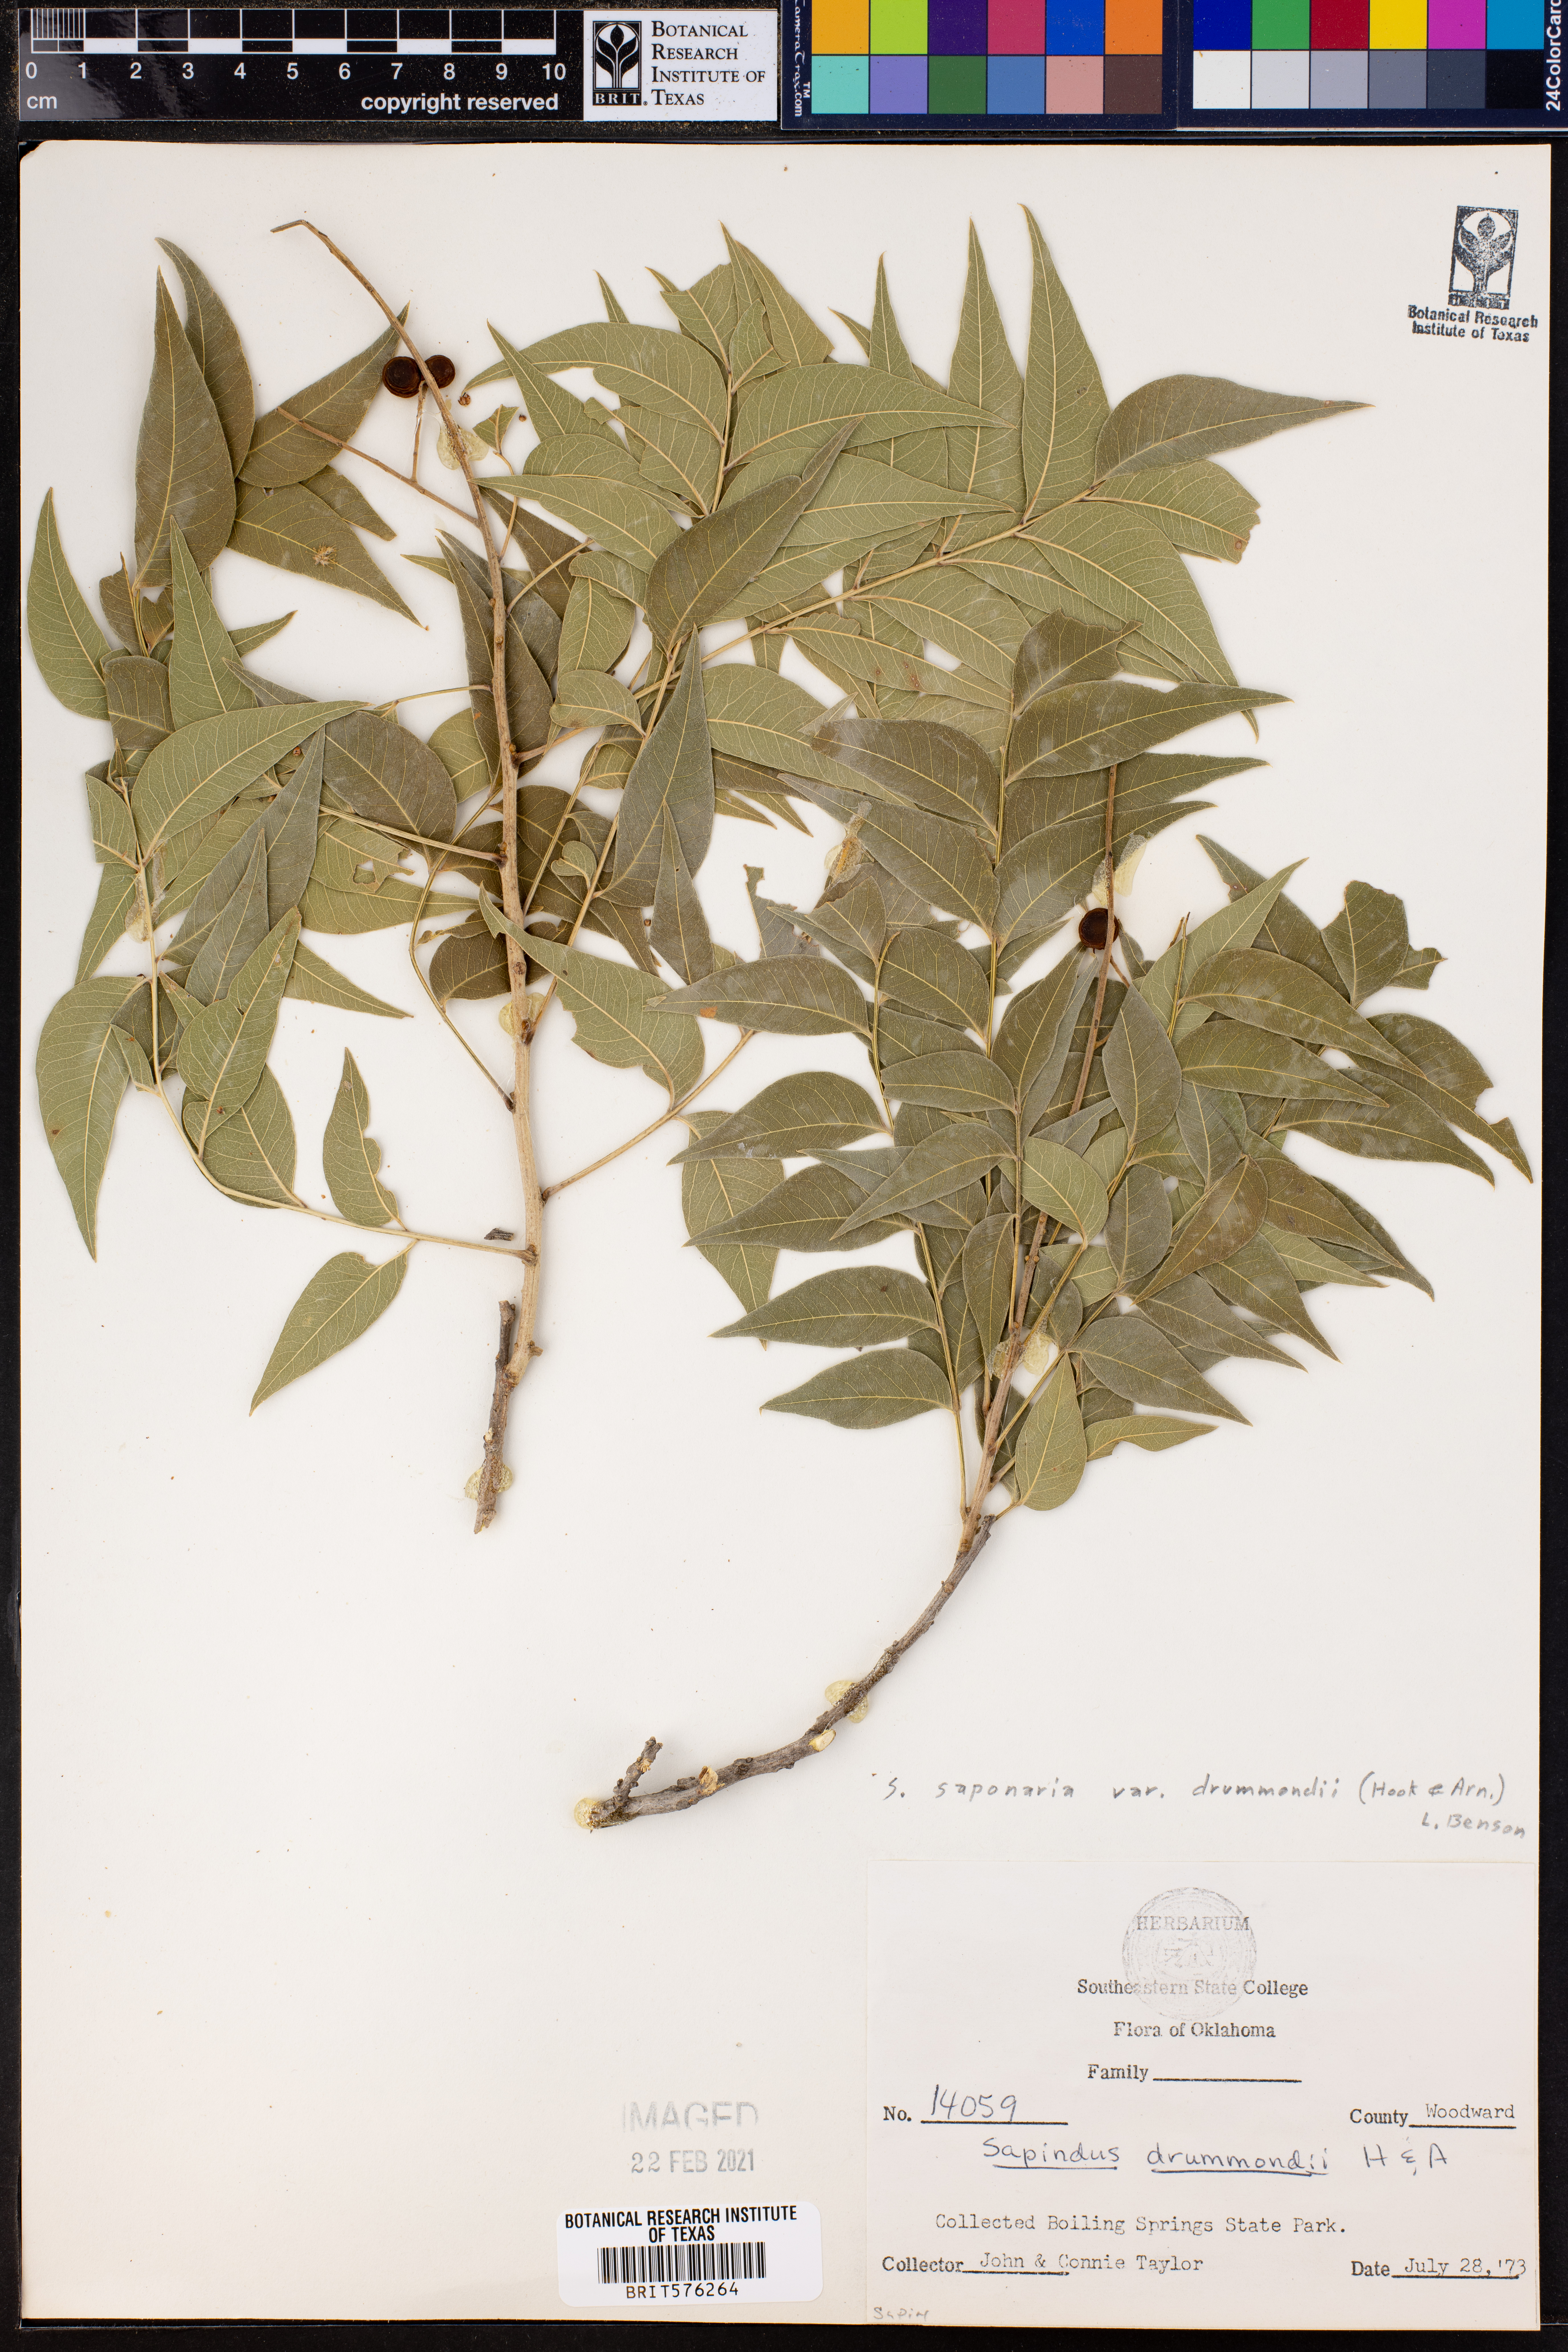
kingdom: Plantae
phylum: Tracheophyta
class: Magnoliopsida
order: Sapindales
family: Sapindaceae
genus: Sapindus
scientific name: Sapindus drummondii
